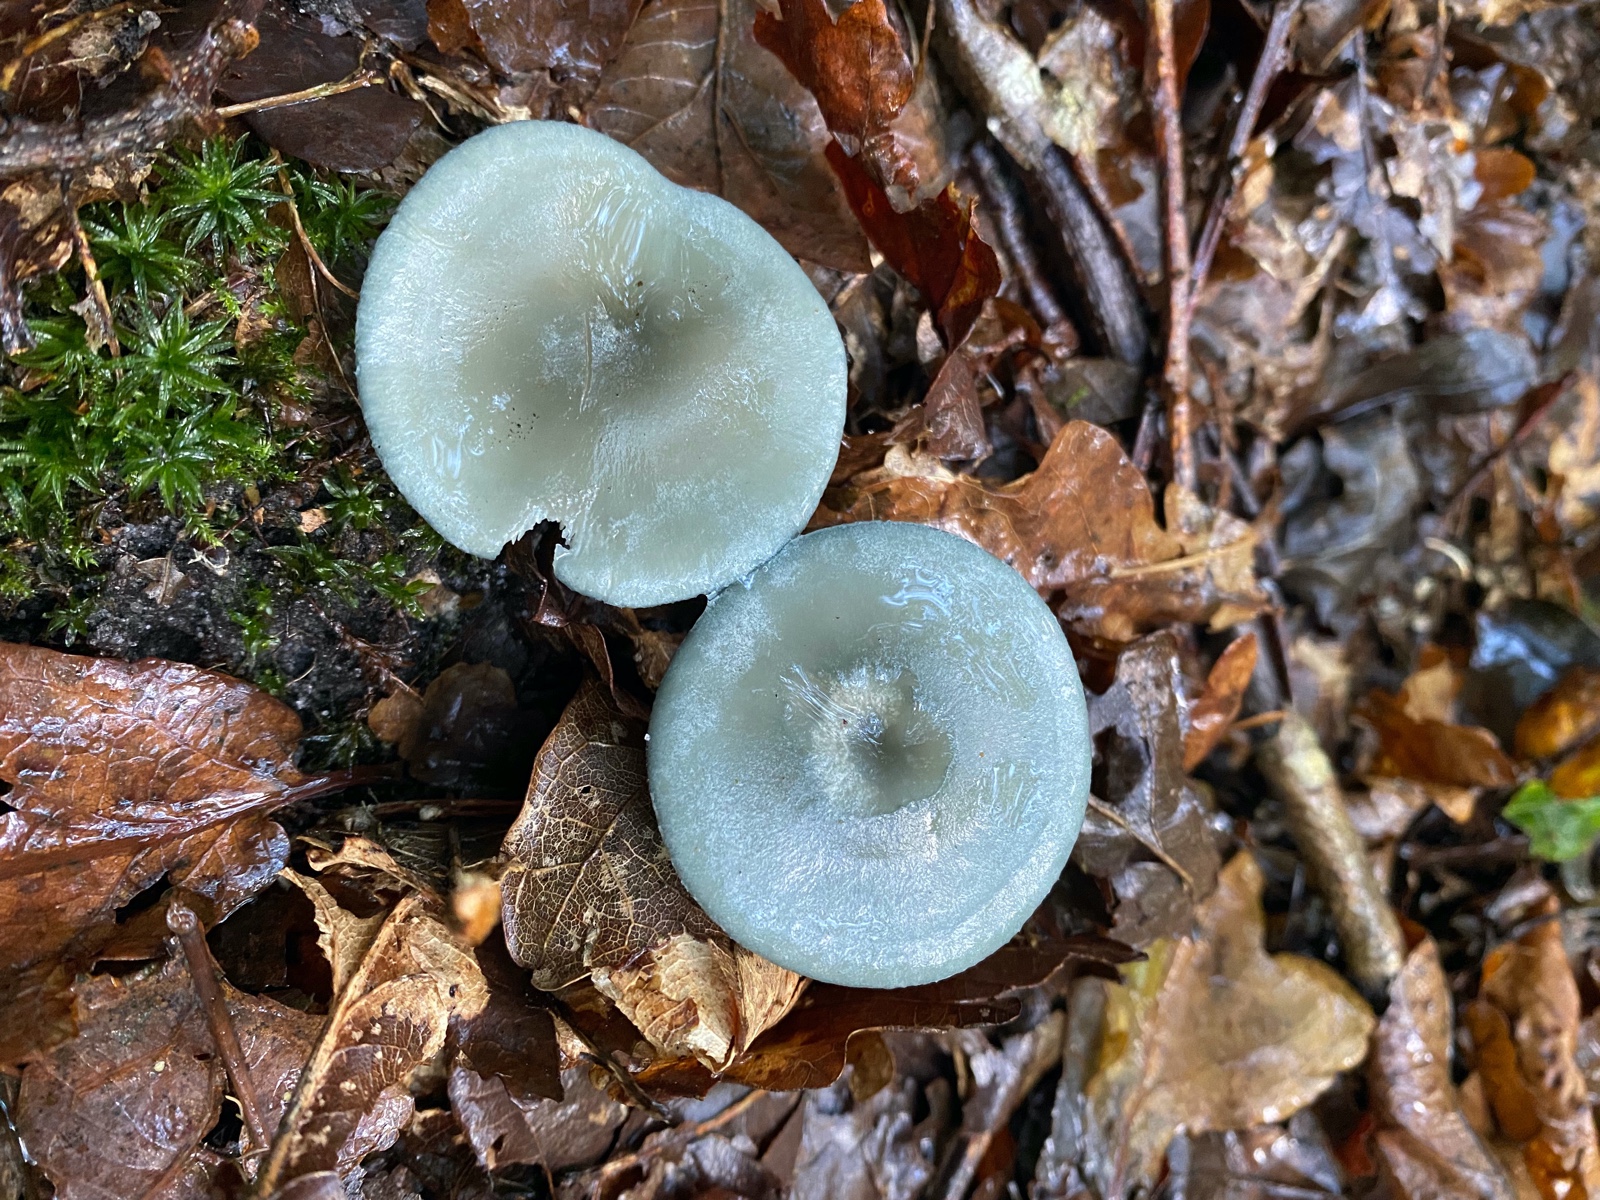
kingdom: Fungi
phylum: Basidiomycota
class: Agaricomycetes
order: Agaricales
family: Tricholomataceae
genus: Clitocybe
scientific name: Clitocybe odora
